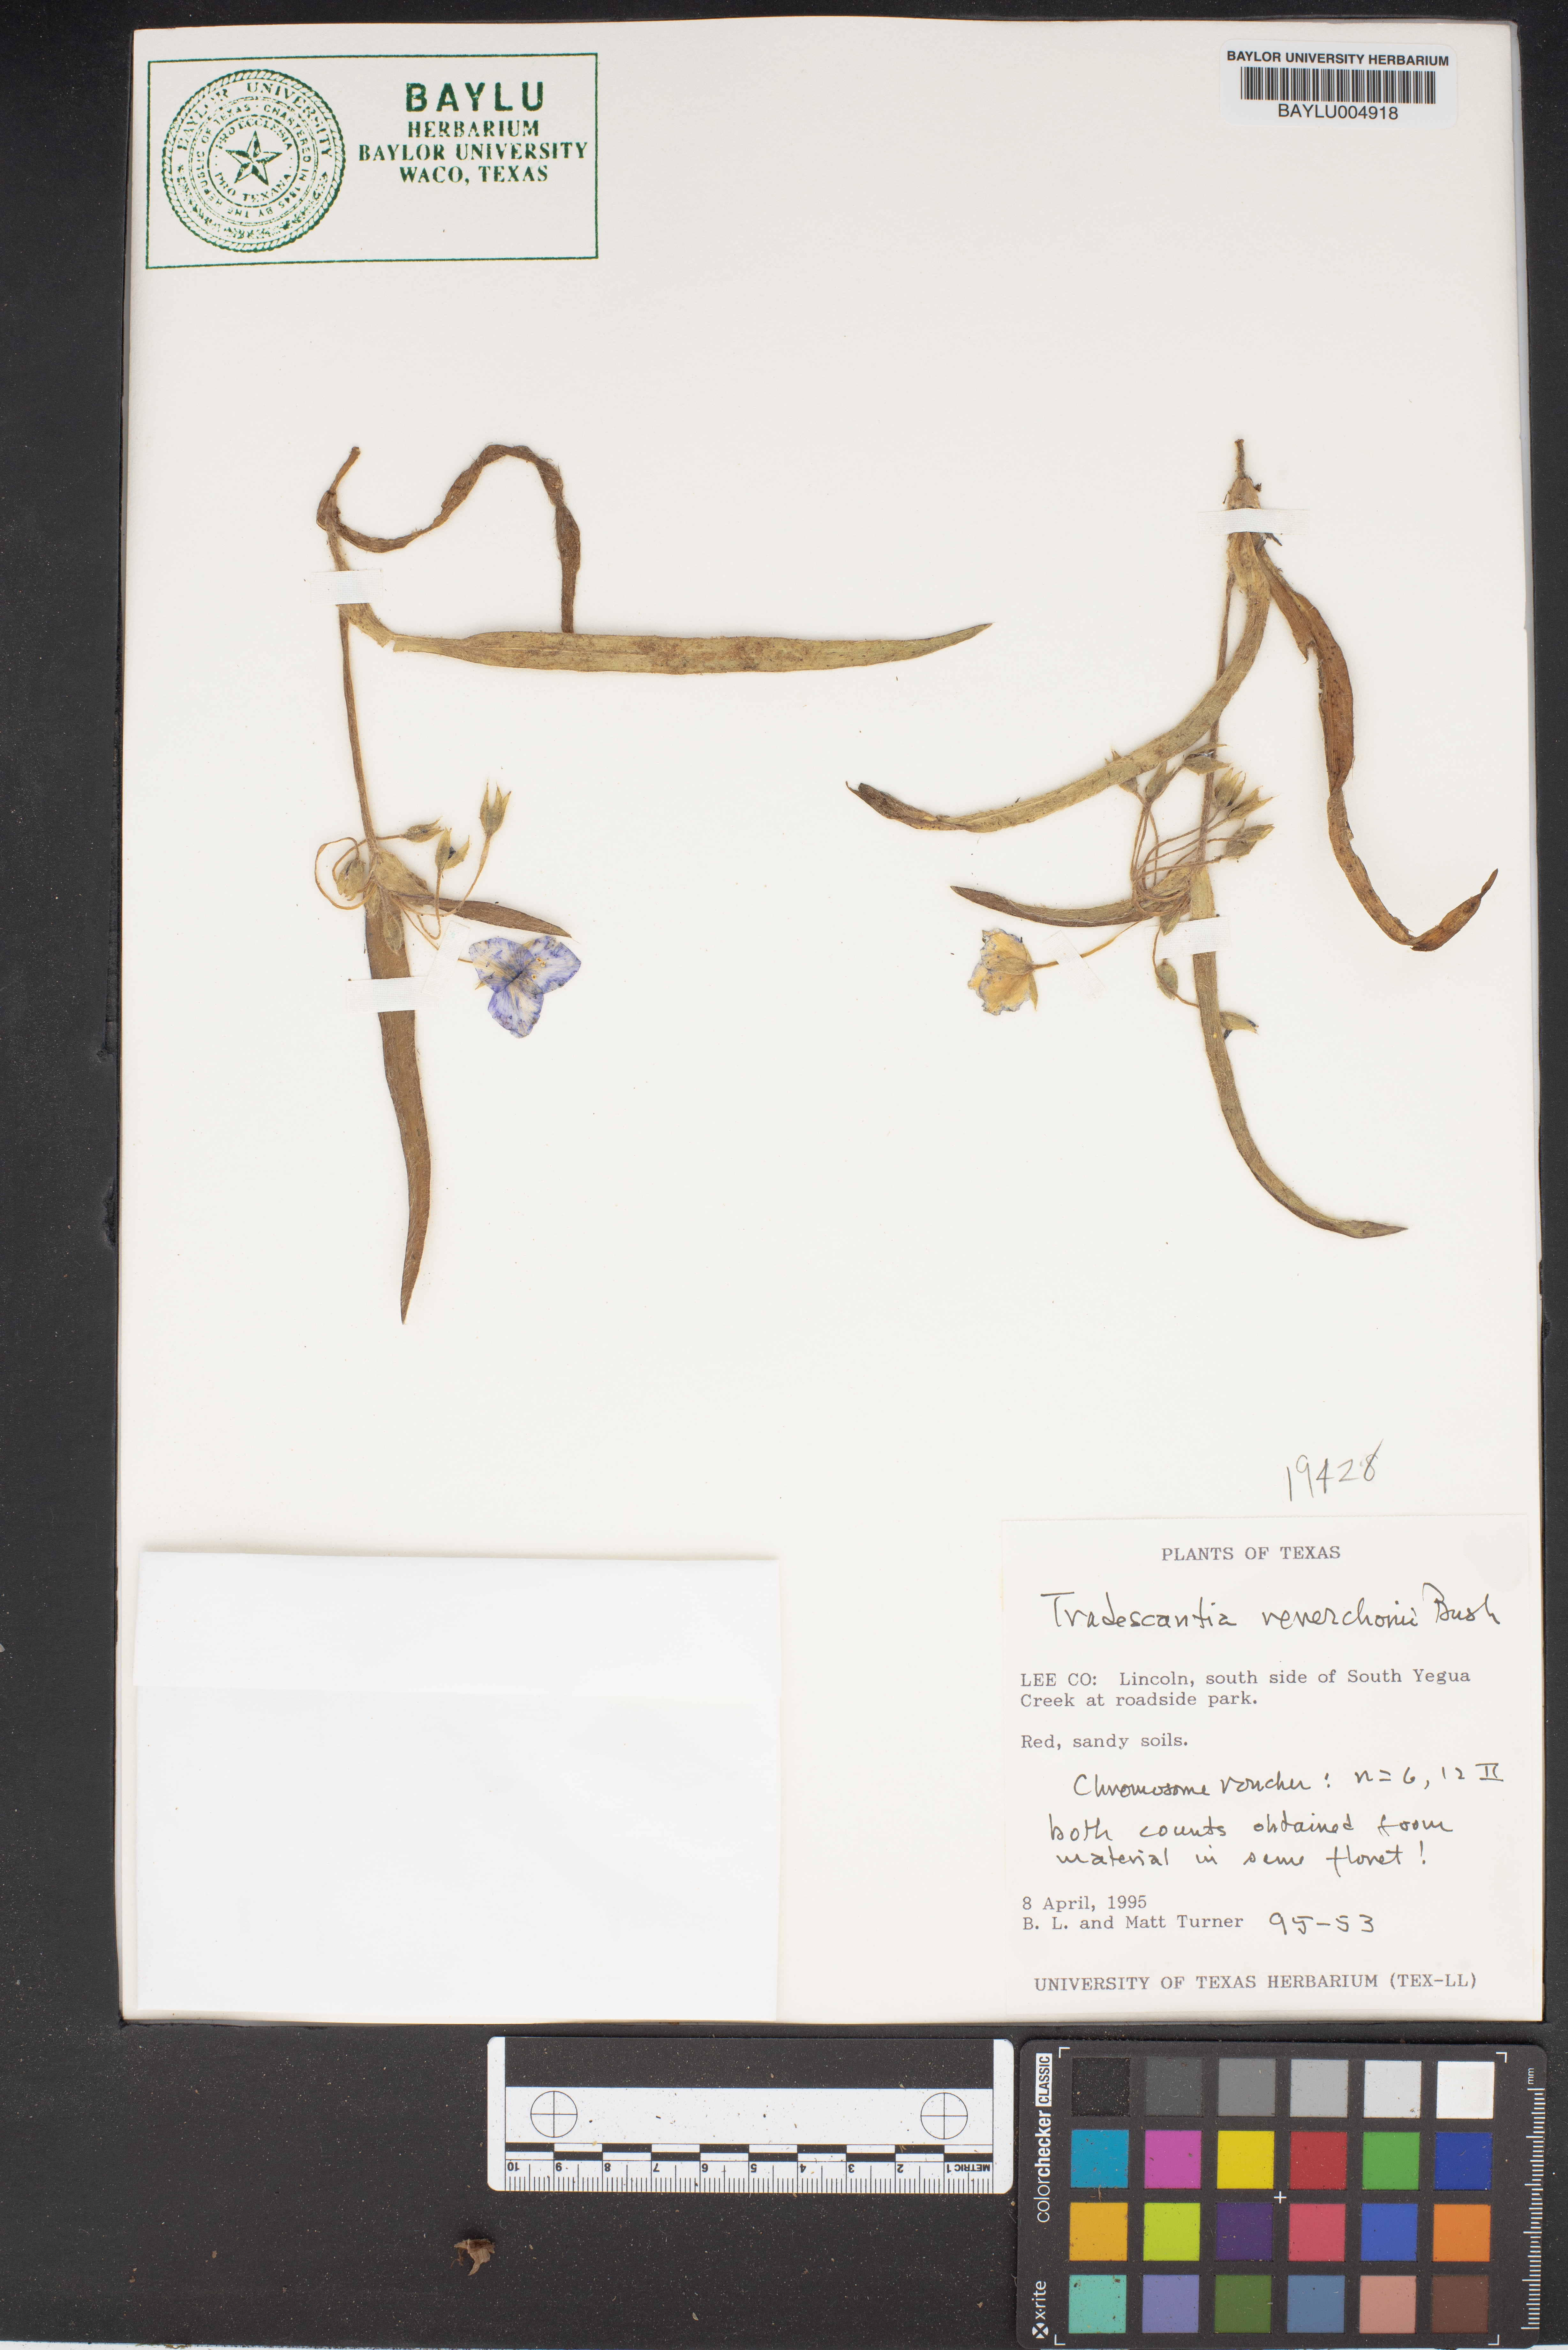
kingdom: Plantae
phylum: Tracheophyta
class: Liliopsida
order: Commelinales
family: Commelinaceae
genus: Tradescantia
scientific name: Tradescantia reverchonii
